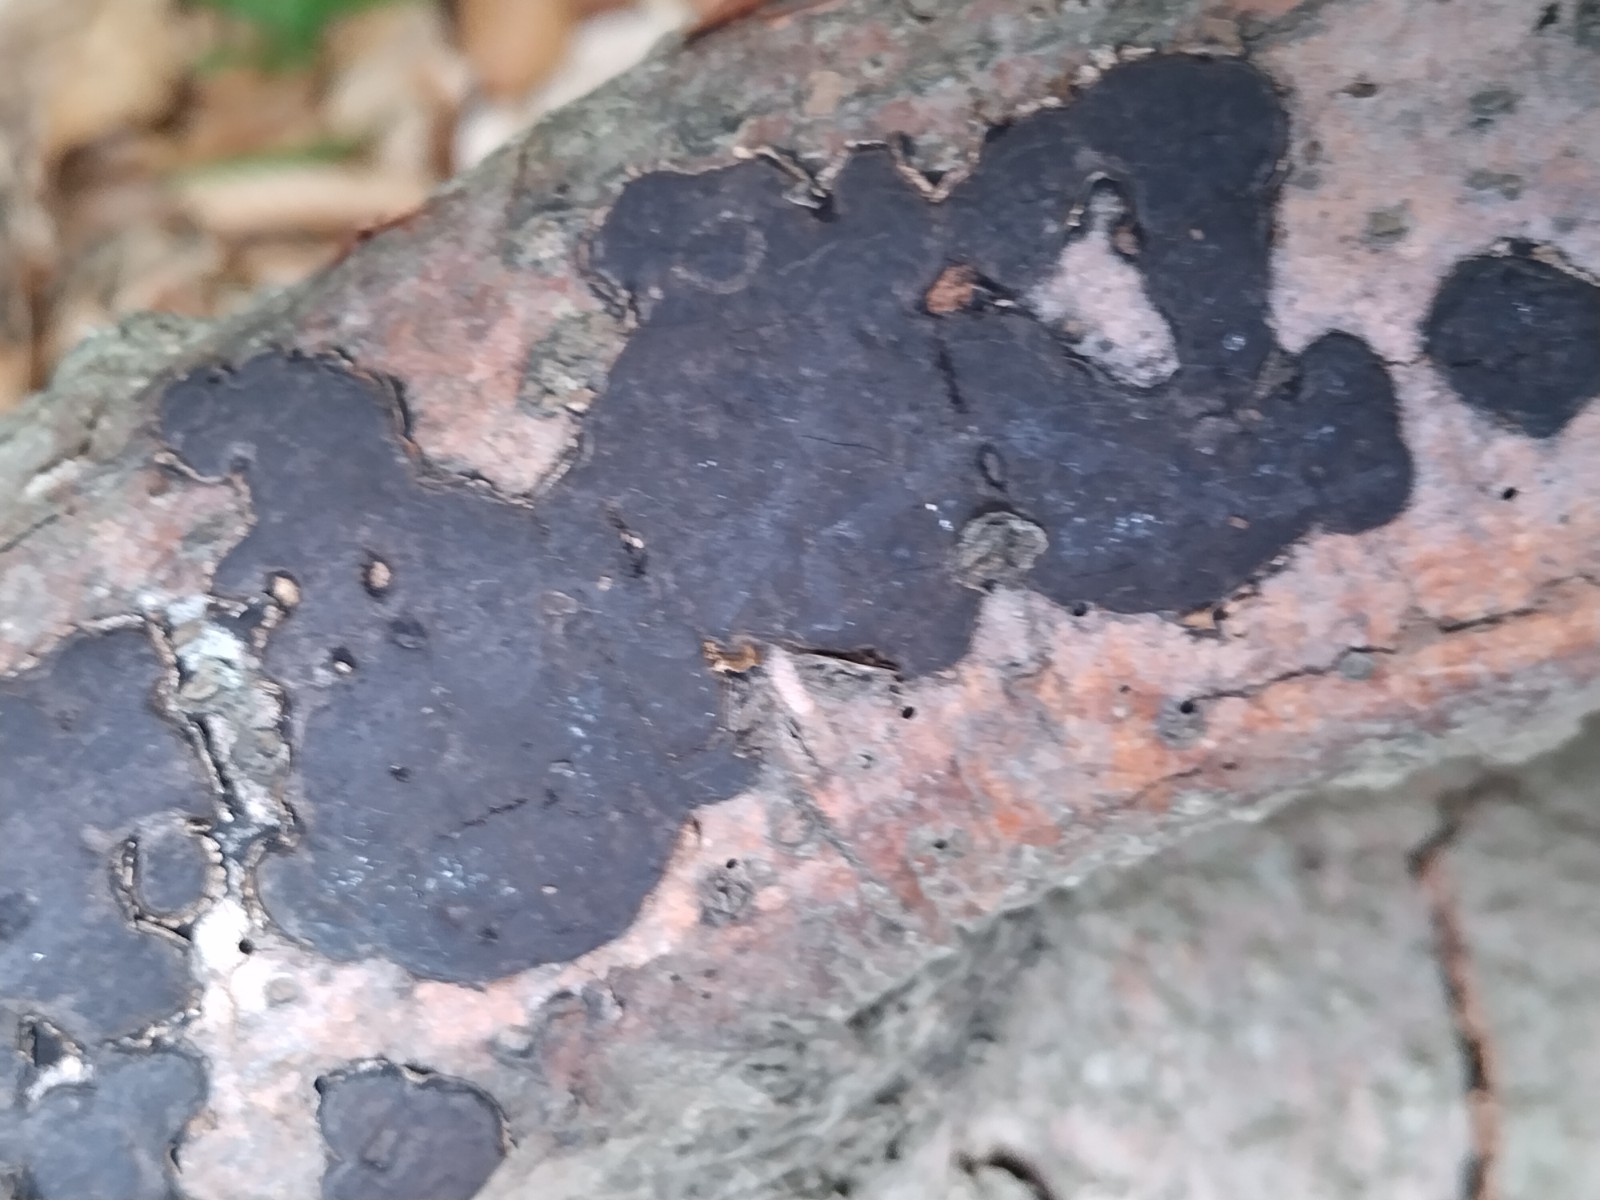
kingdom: Fungi
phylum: Ascomycota
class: Sordariomycetes
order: Xylariales
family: Graphostromataceae
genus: Biscogniauxia
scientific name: Biscogniauxia nummularia
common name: bøge-kulskive
